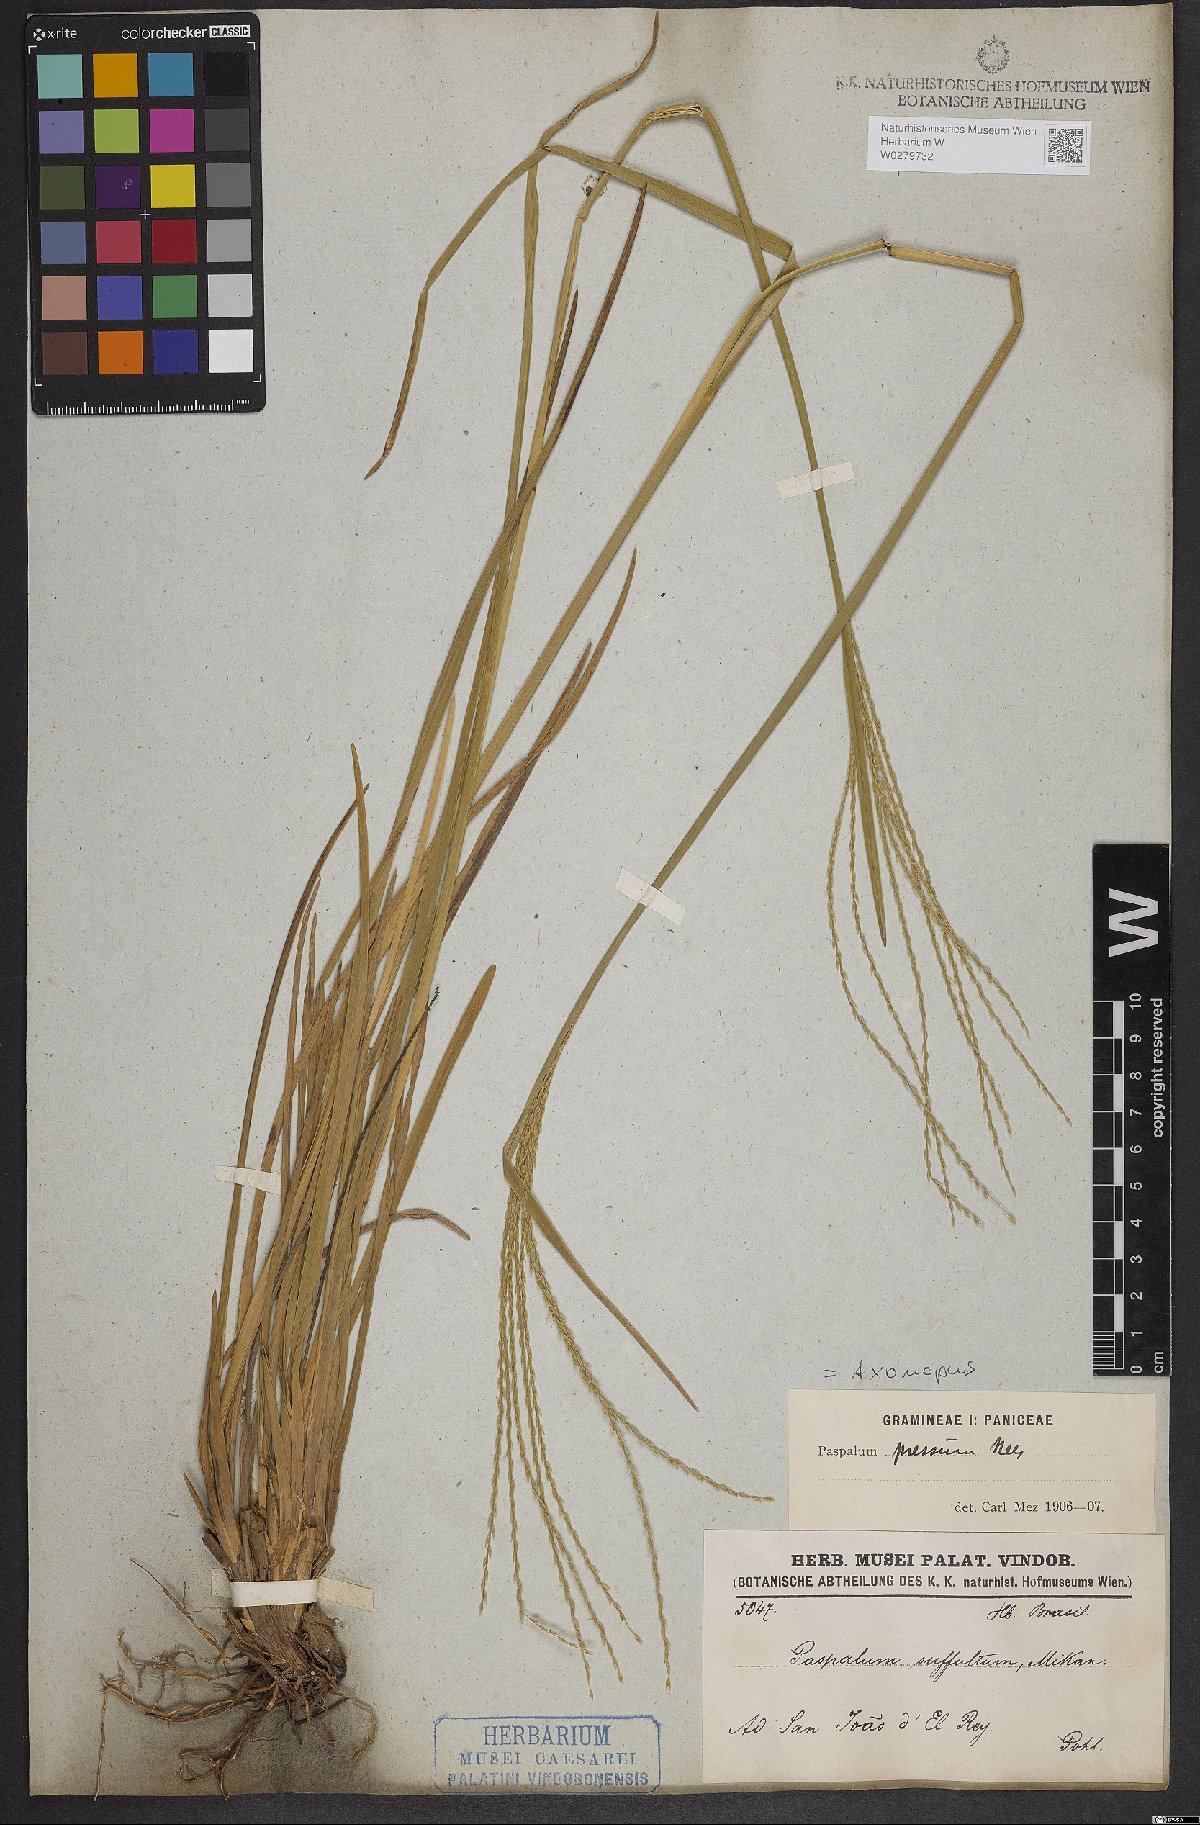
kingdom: Plantae
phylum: Tracheophyta
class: Liliopsida
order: Poales
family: Poaceae
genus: Axonopus
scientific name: Axonopus pressus
